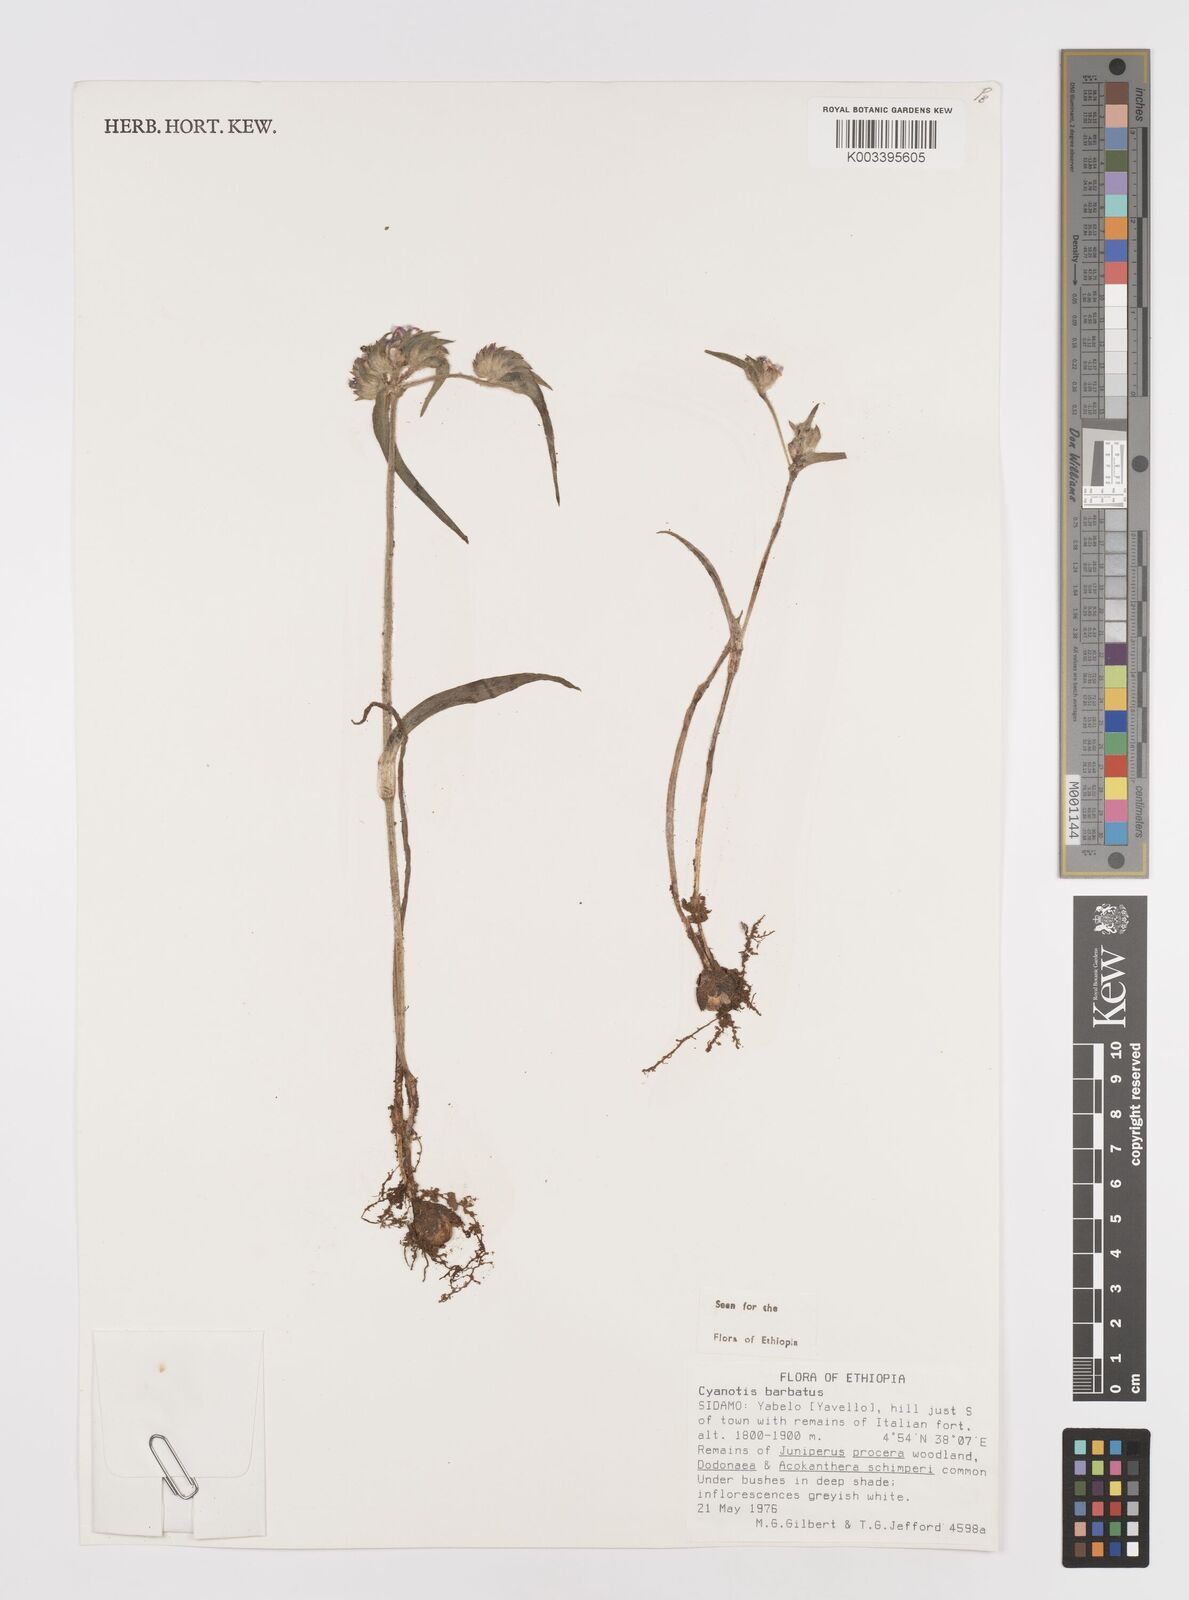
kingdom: Plantae
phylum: Tracheophyta
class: Liliopsida
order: Commelinales
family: Commelinaceae
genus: Cyanotis
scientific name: Cyanotis vaga
